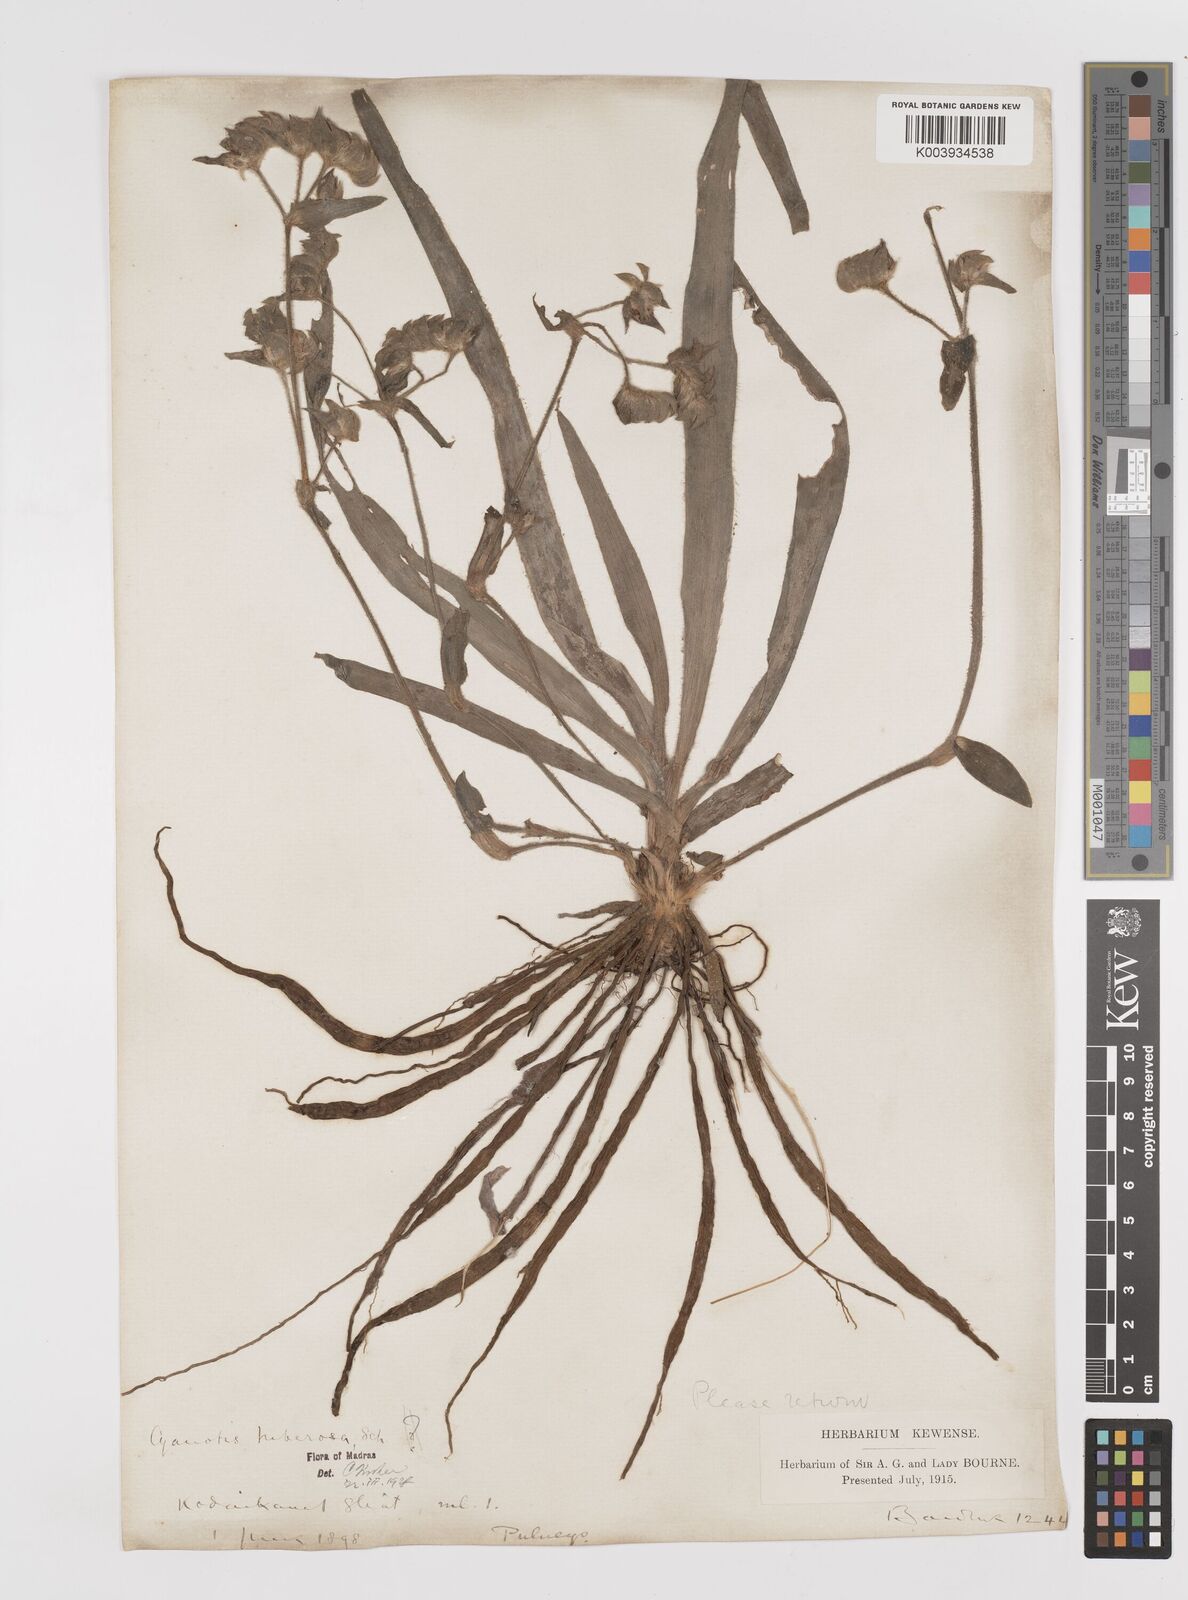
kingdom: Plantae
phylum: Tracheophyta
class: Liliopsida
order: Commelinales
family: Commelinaceae
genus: Cyanotis
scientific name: Cyanotis tuberosa
